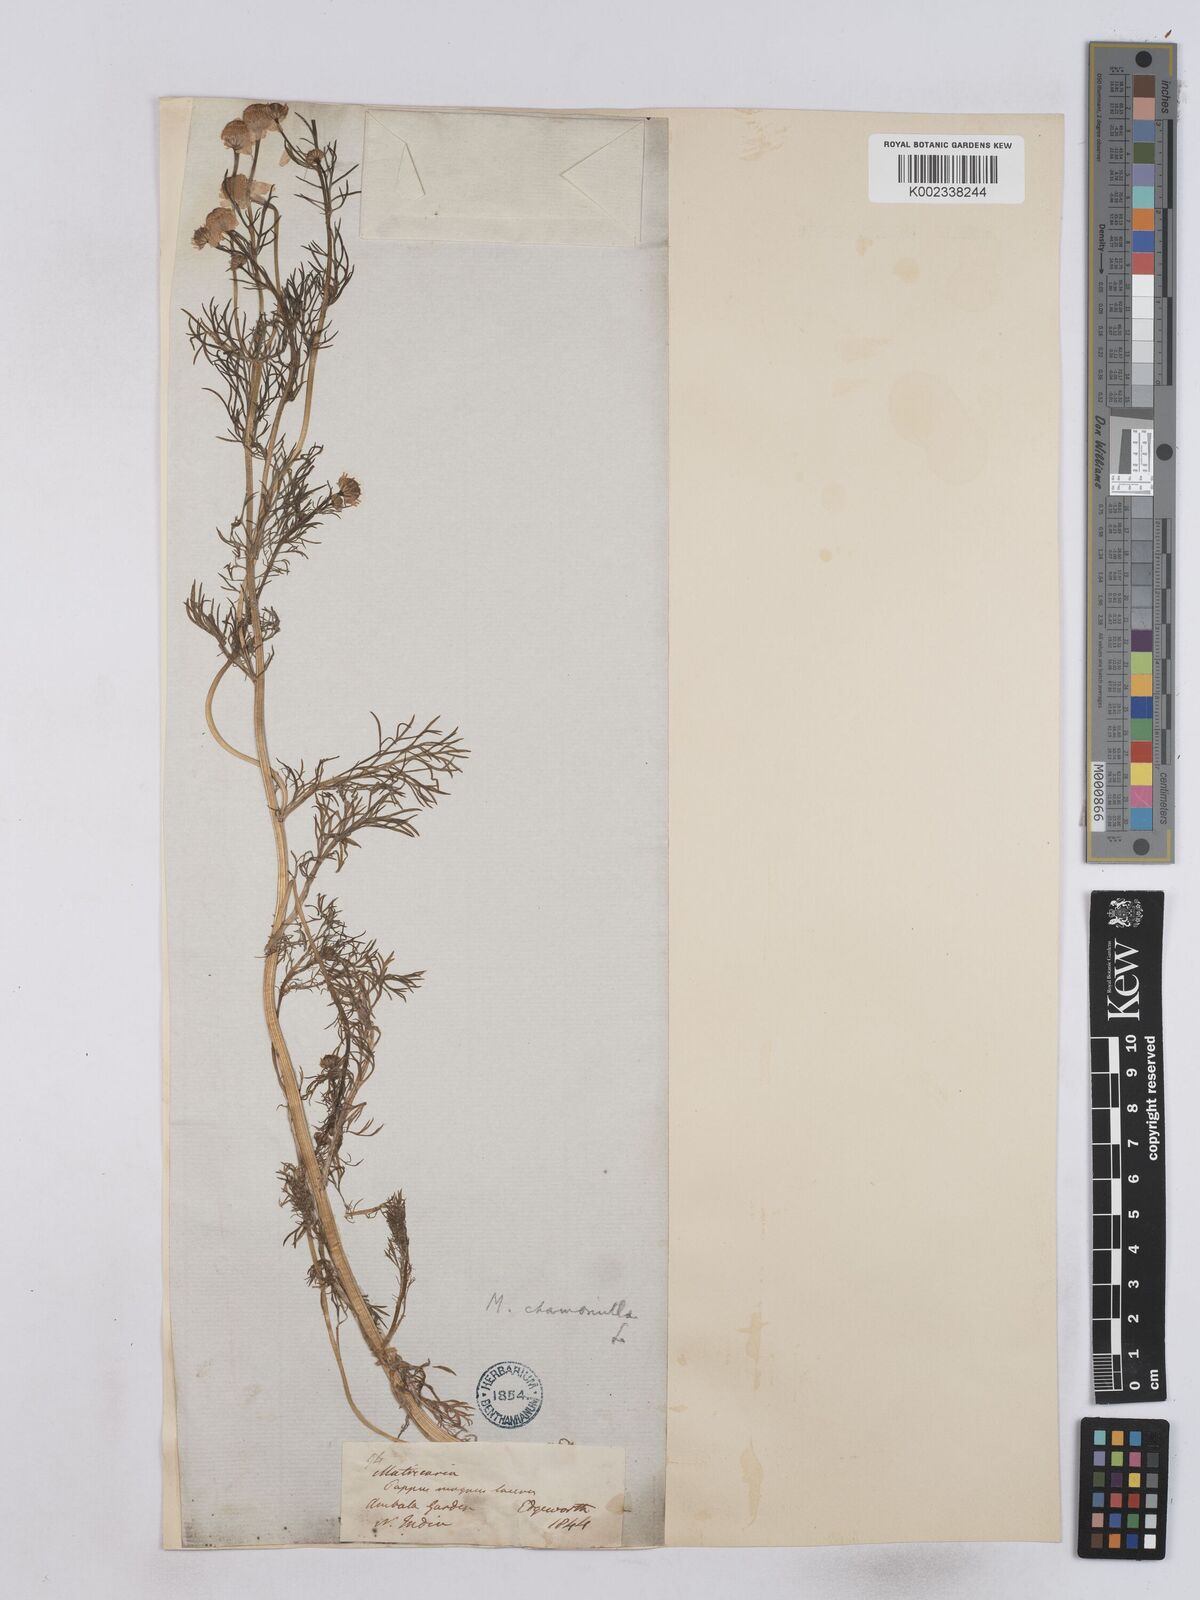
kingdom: Plantae
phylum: Tracheophyta
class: Magnoliopsida
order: Asterales
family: Asteraceae
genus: Matricaria
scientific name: Matricaria chamomilla
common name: Scented mayweed
